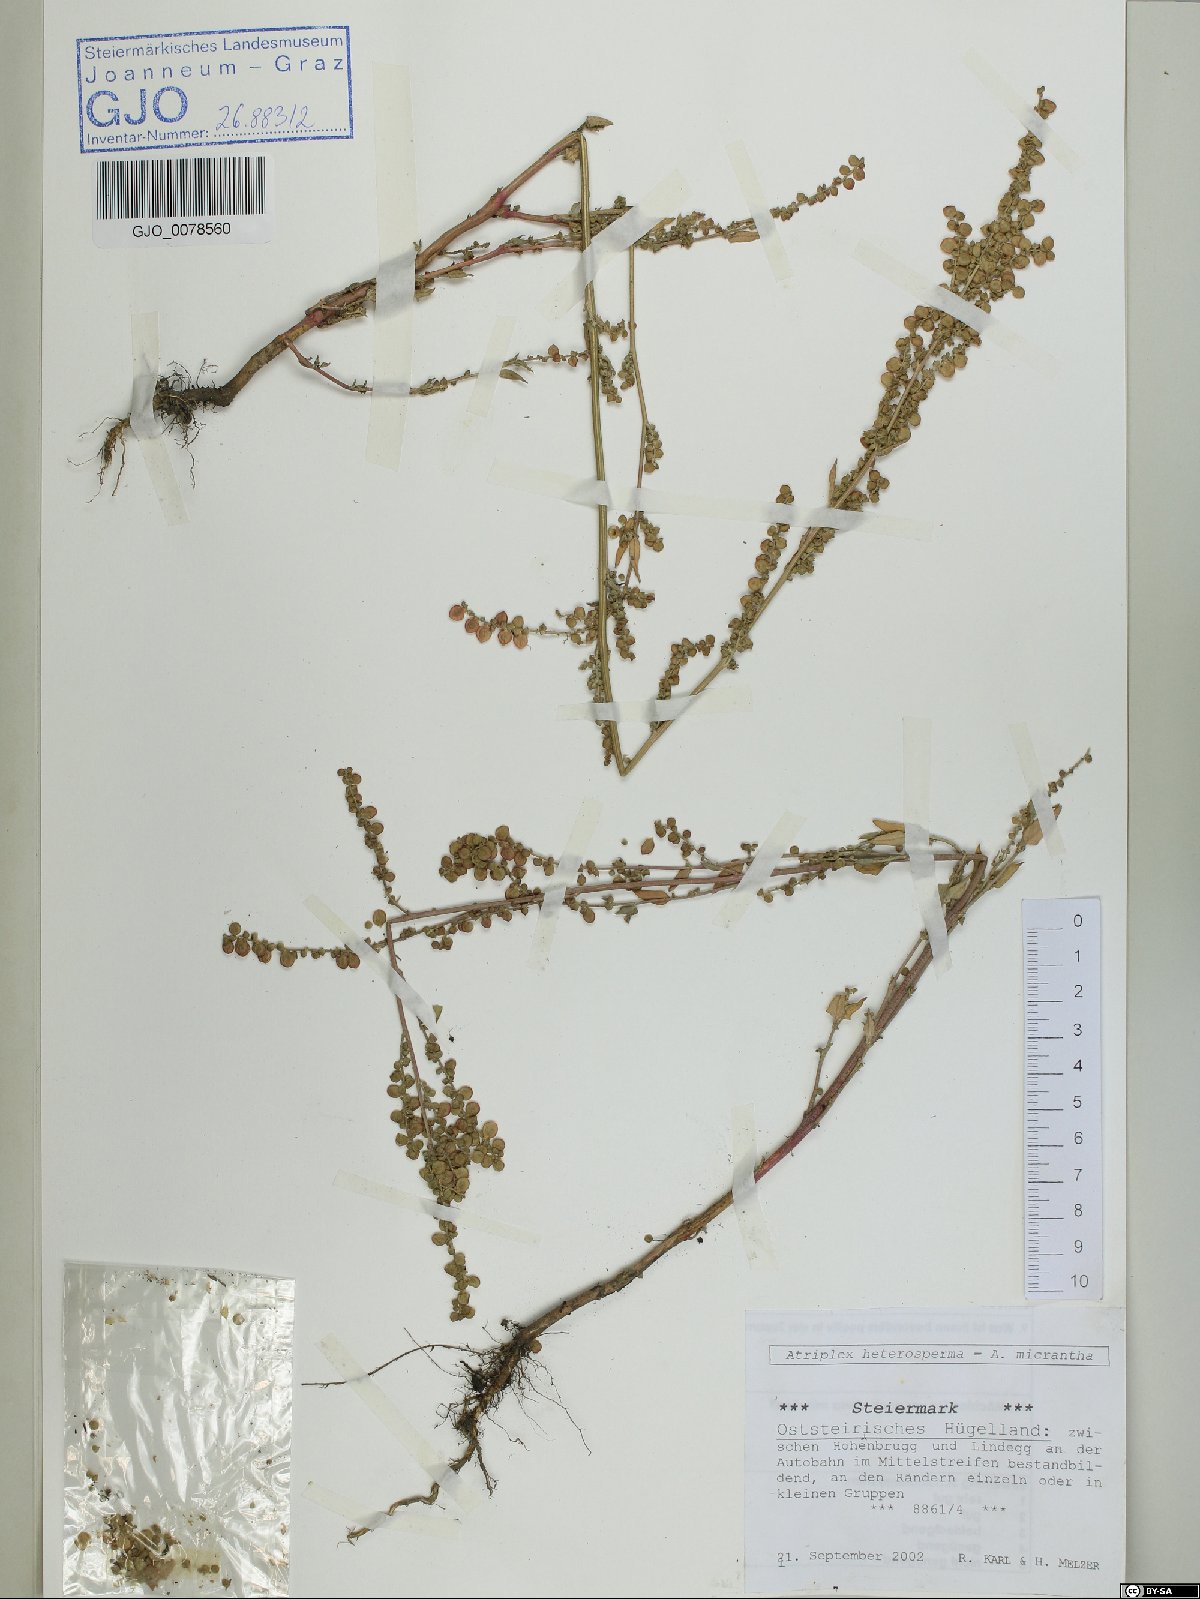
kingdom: Plantae
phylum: Tracheophyta
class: Magnoliopsida
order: Caryophyllales
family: Amaranthaceae
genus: Atriplex
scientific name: Atriplex micrantha
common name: Twoscale saltbush
